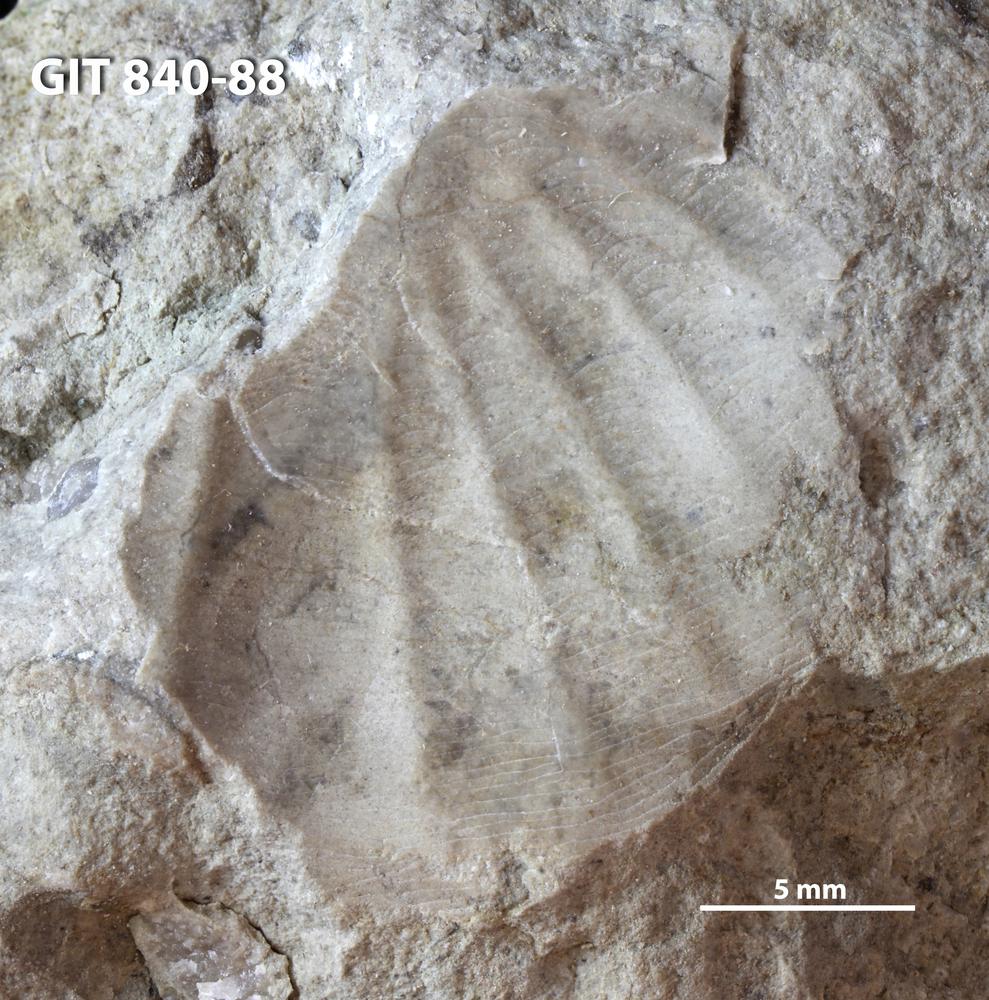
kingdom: Animalia
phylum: Arthropoda
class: Trilobita
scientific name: Trilobita
